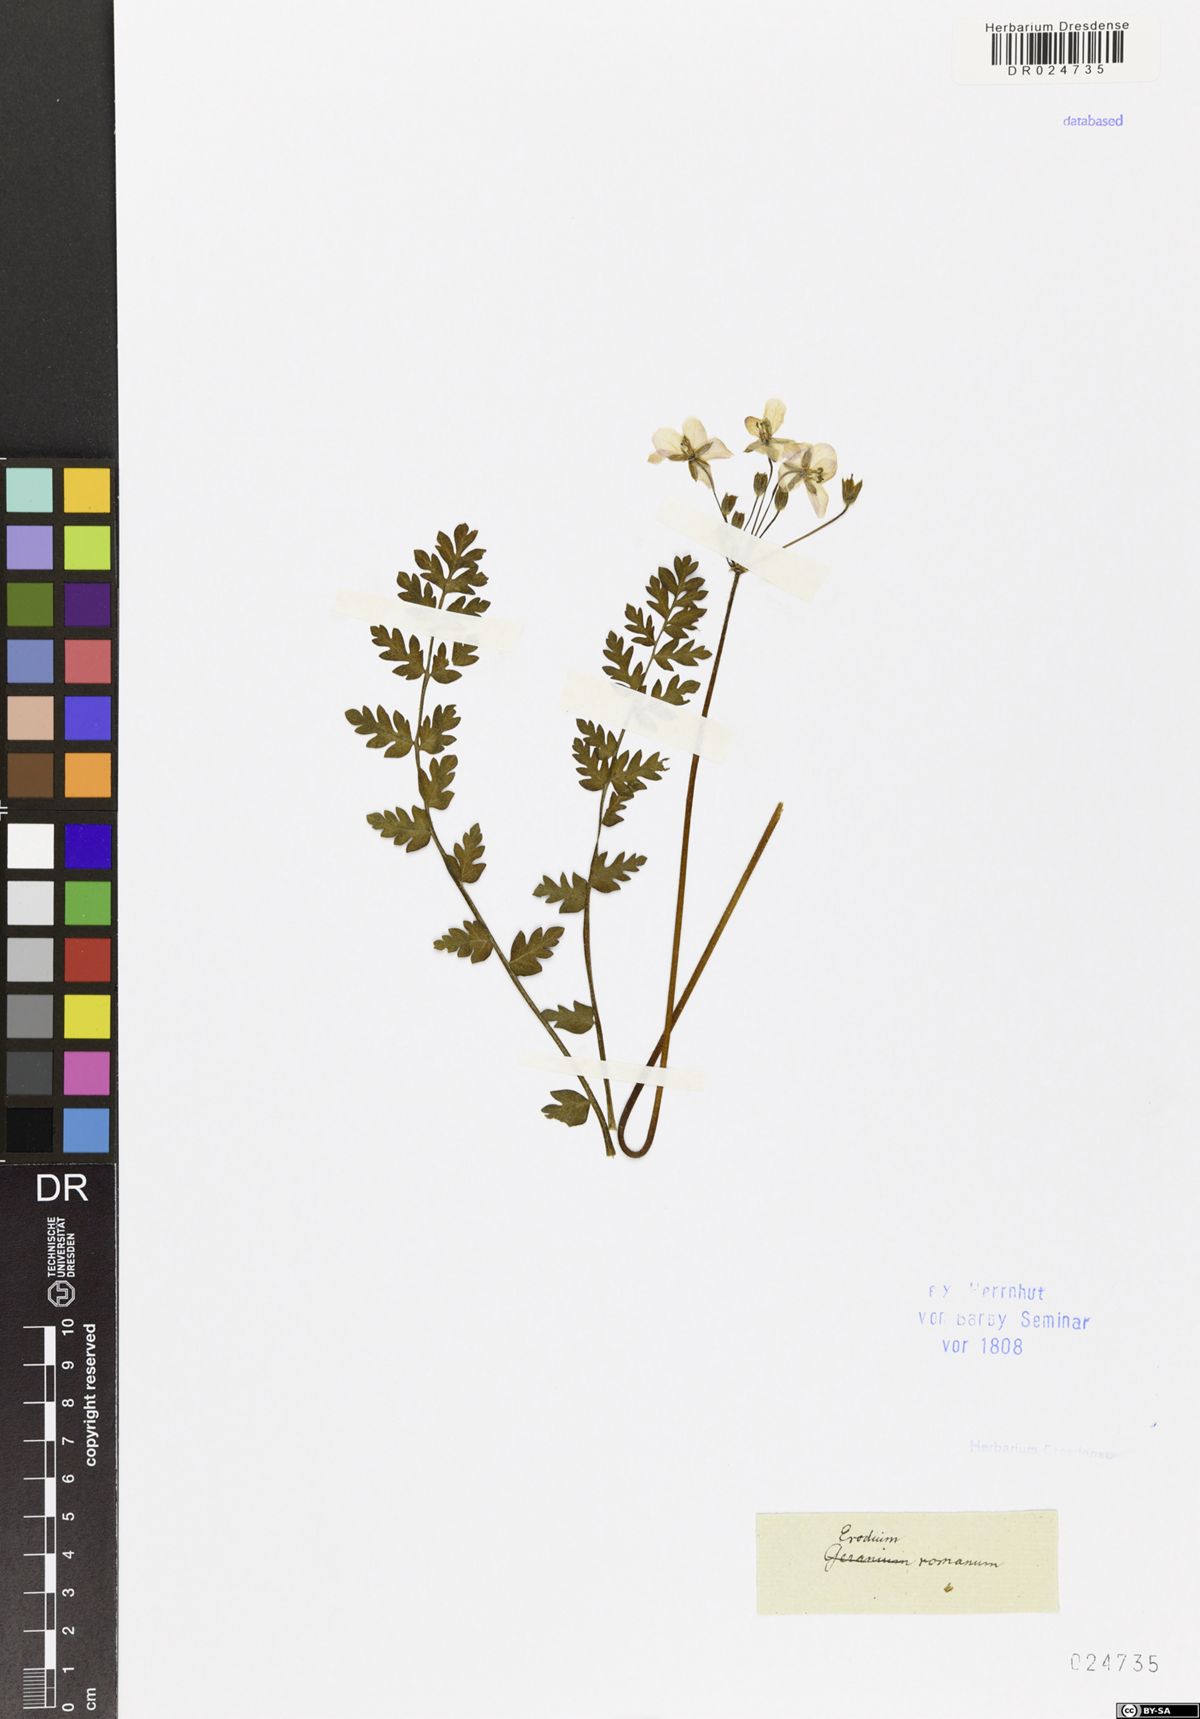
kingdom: Plantae
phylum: Tracheophyta
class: Magnoliopsida
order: Geraniales
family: Geraniaceae
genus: Erodium
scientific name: Erodium acaule
